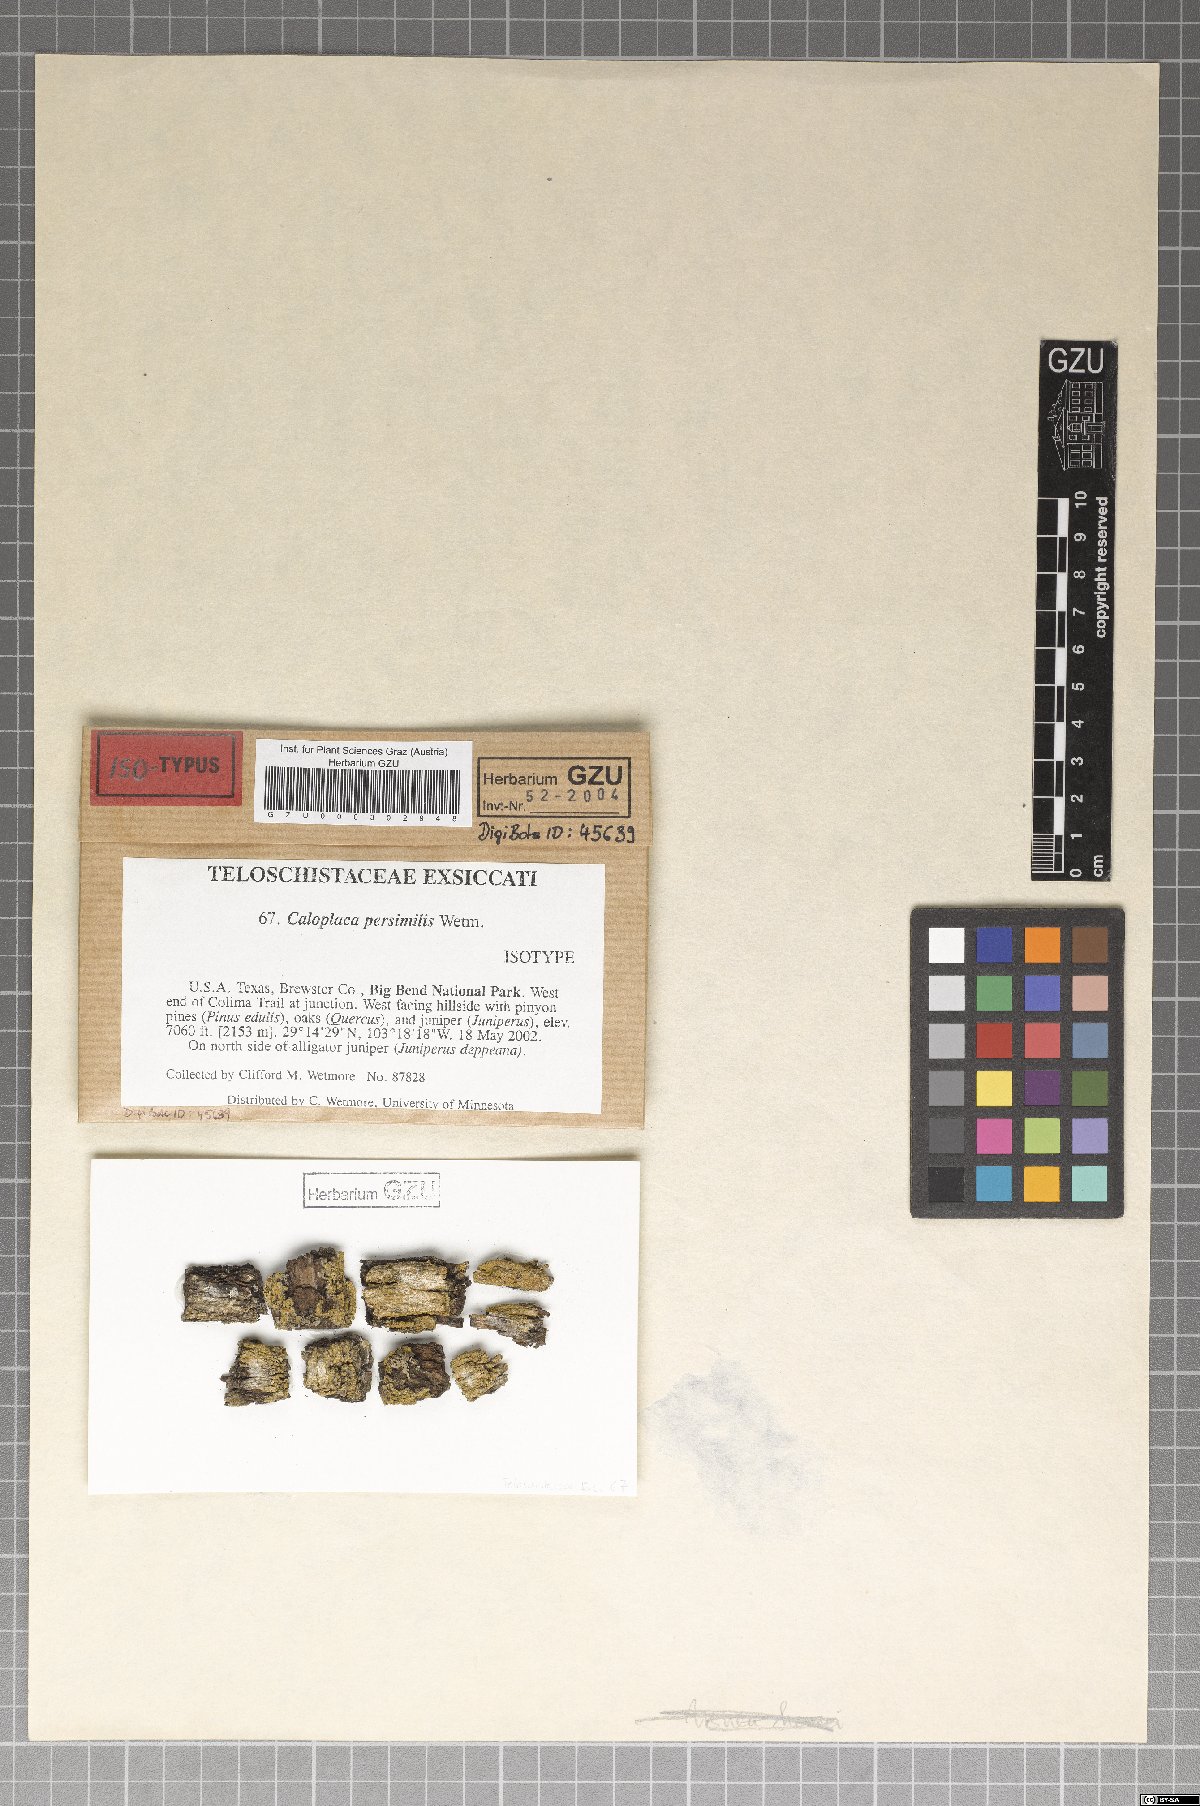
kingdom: Fungi
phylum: Ascomycota
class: Lecanoromycetes
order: Teloschistales
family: Teloschistaceae
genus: Gyalolechia
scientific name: Gyalolechia persimilis
